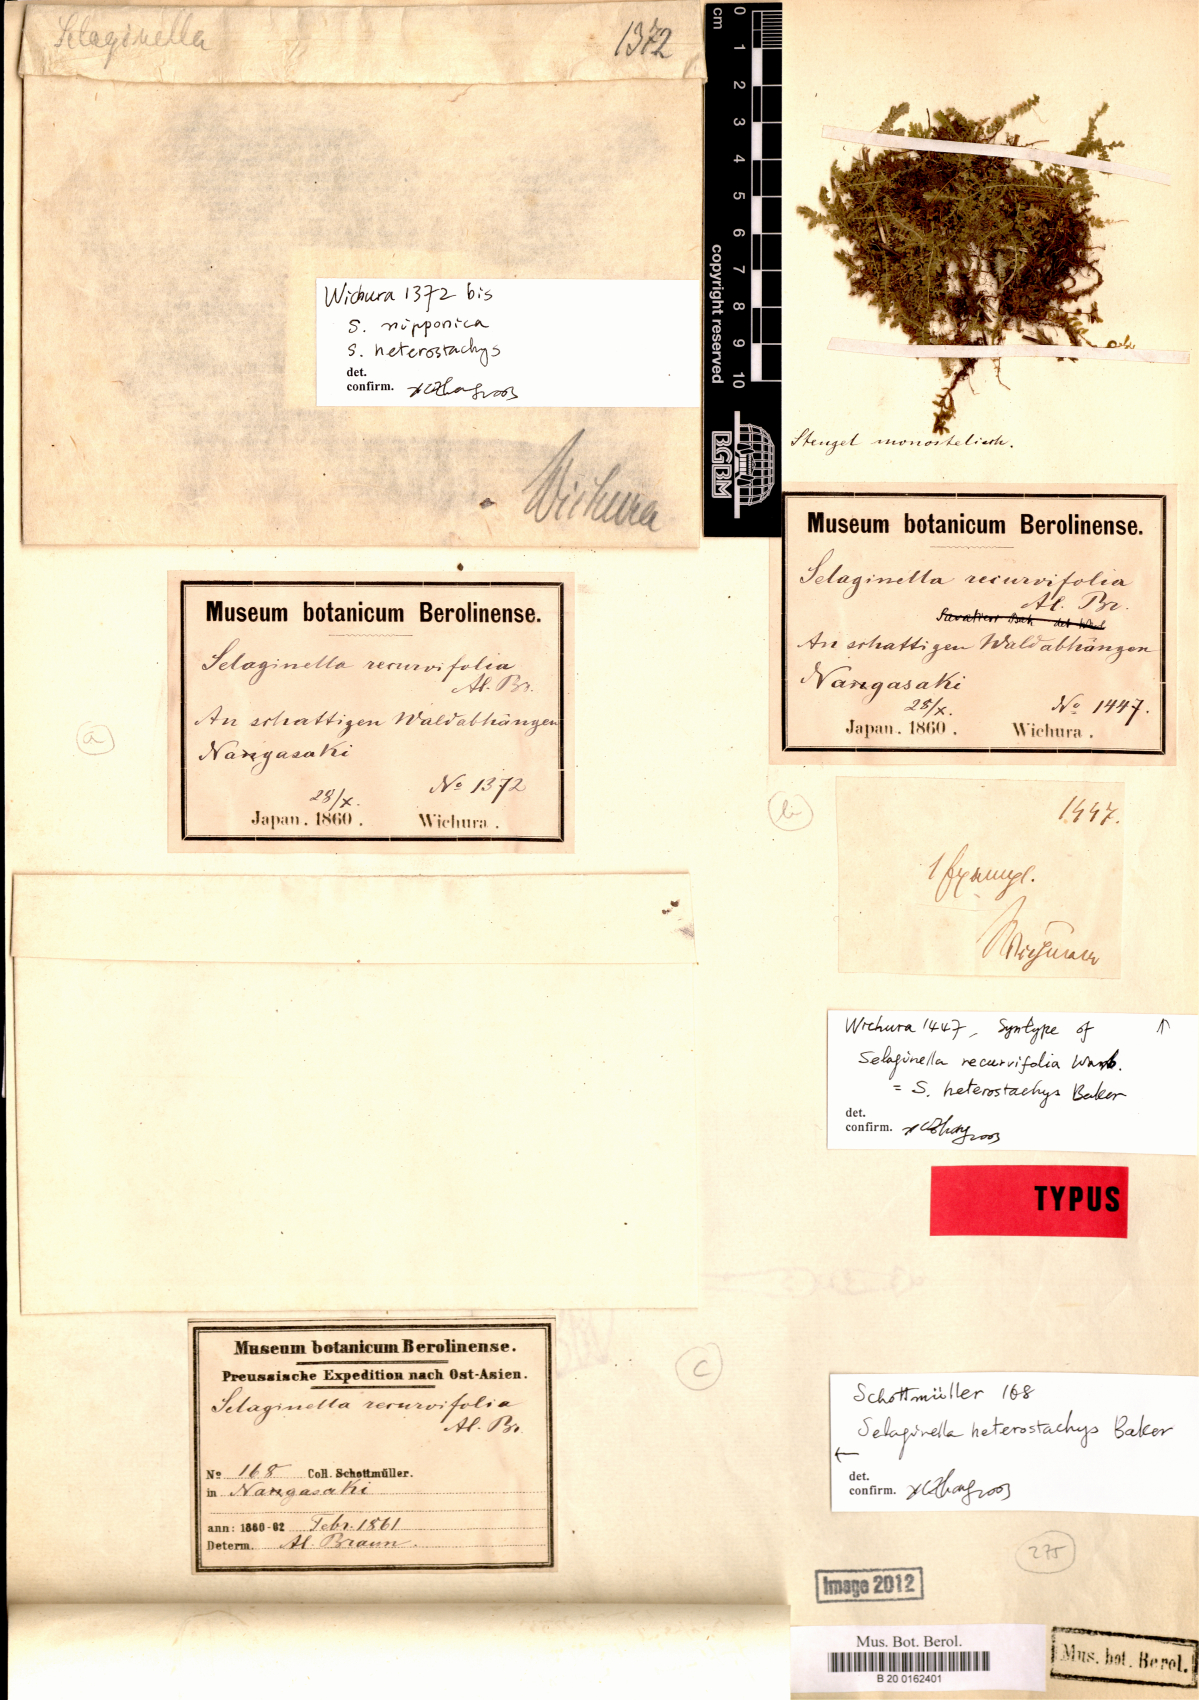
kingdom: Plantae
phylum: Tracheophyta
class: Lycopodiopsida
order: Selaginellales
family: Selaginellaceae
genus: Selaginella
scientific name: Selaginella heterostachys
